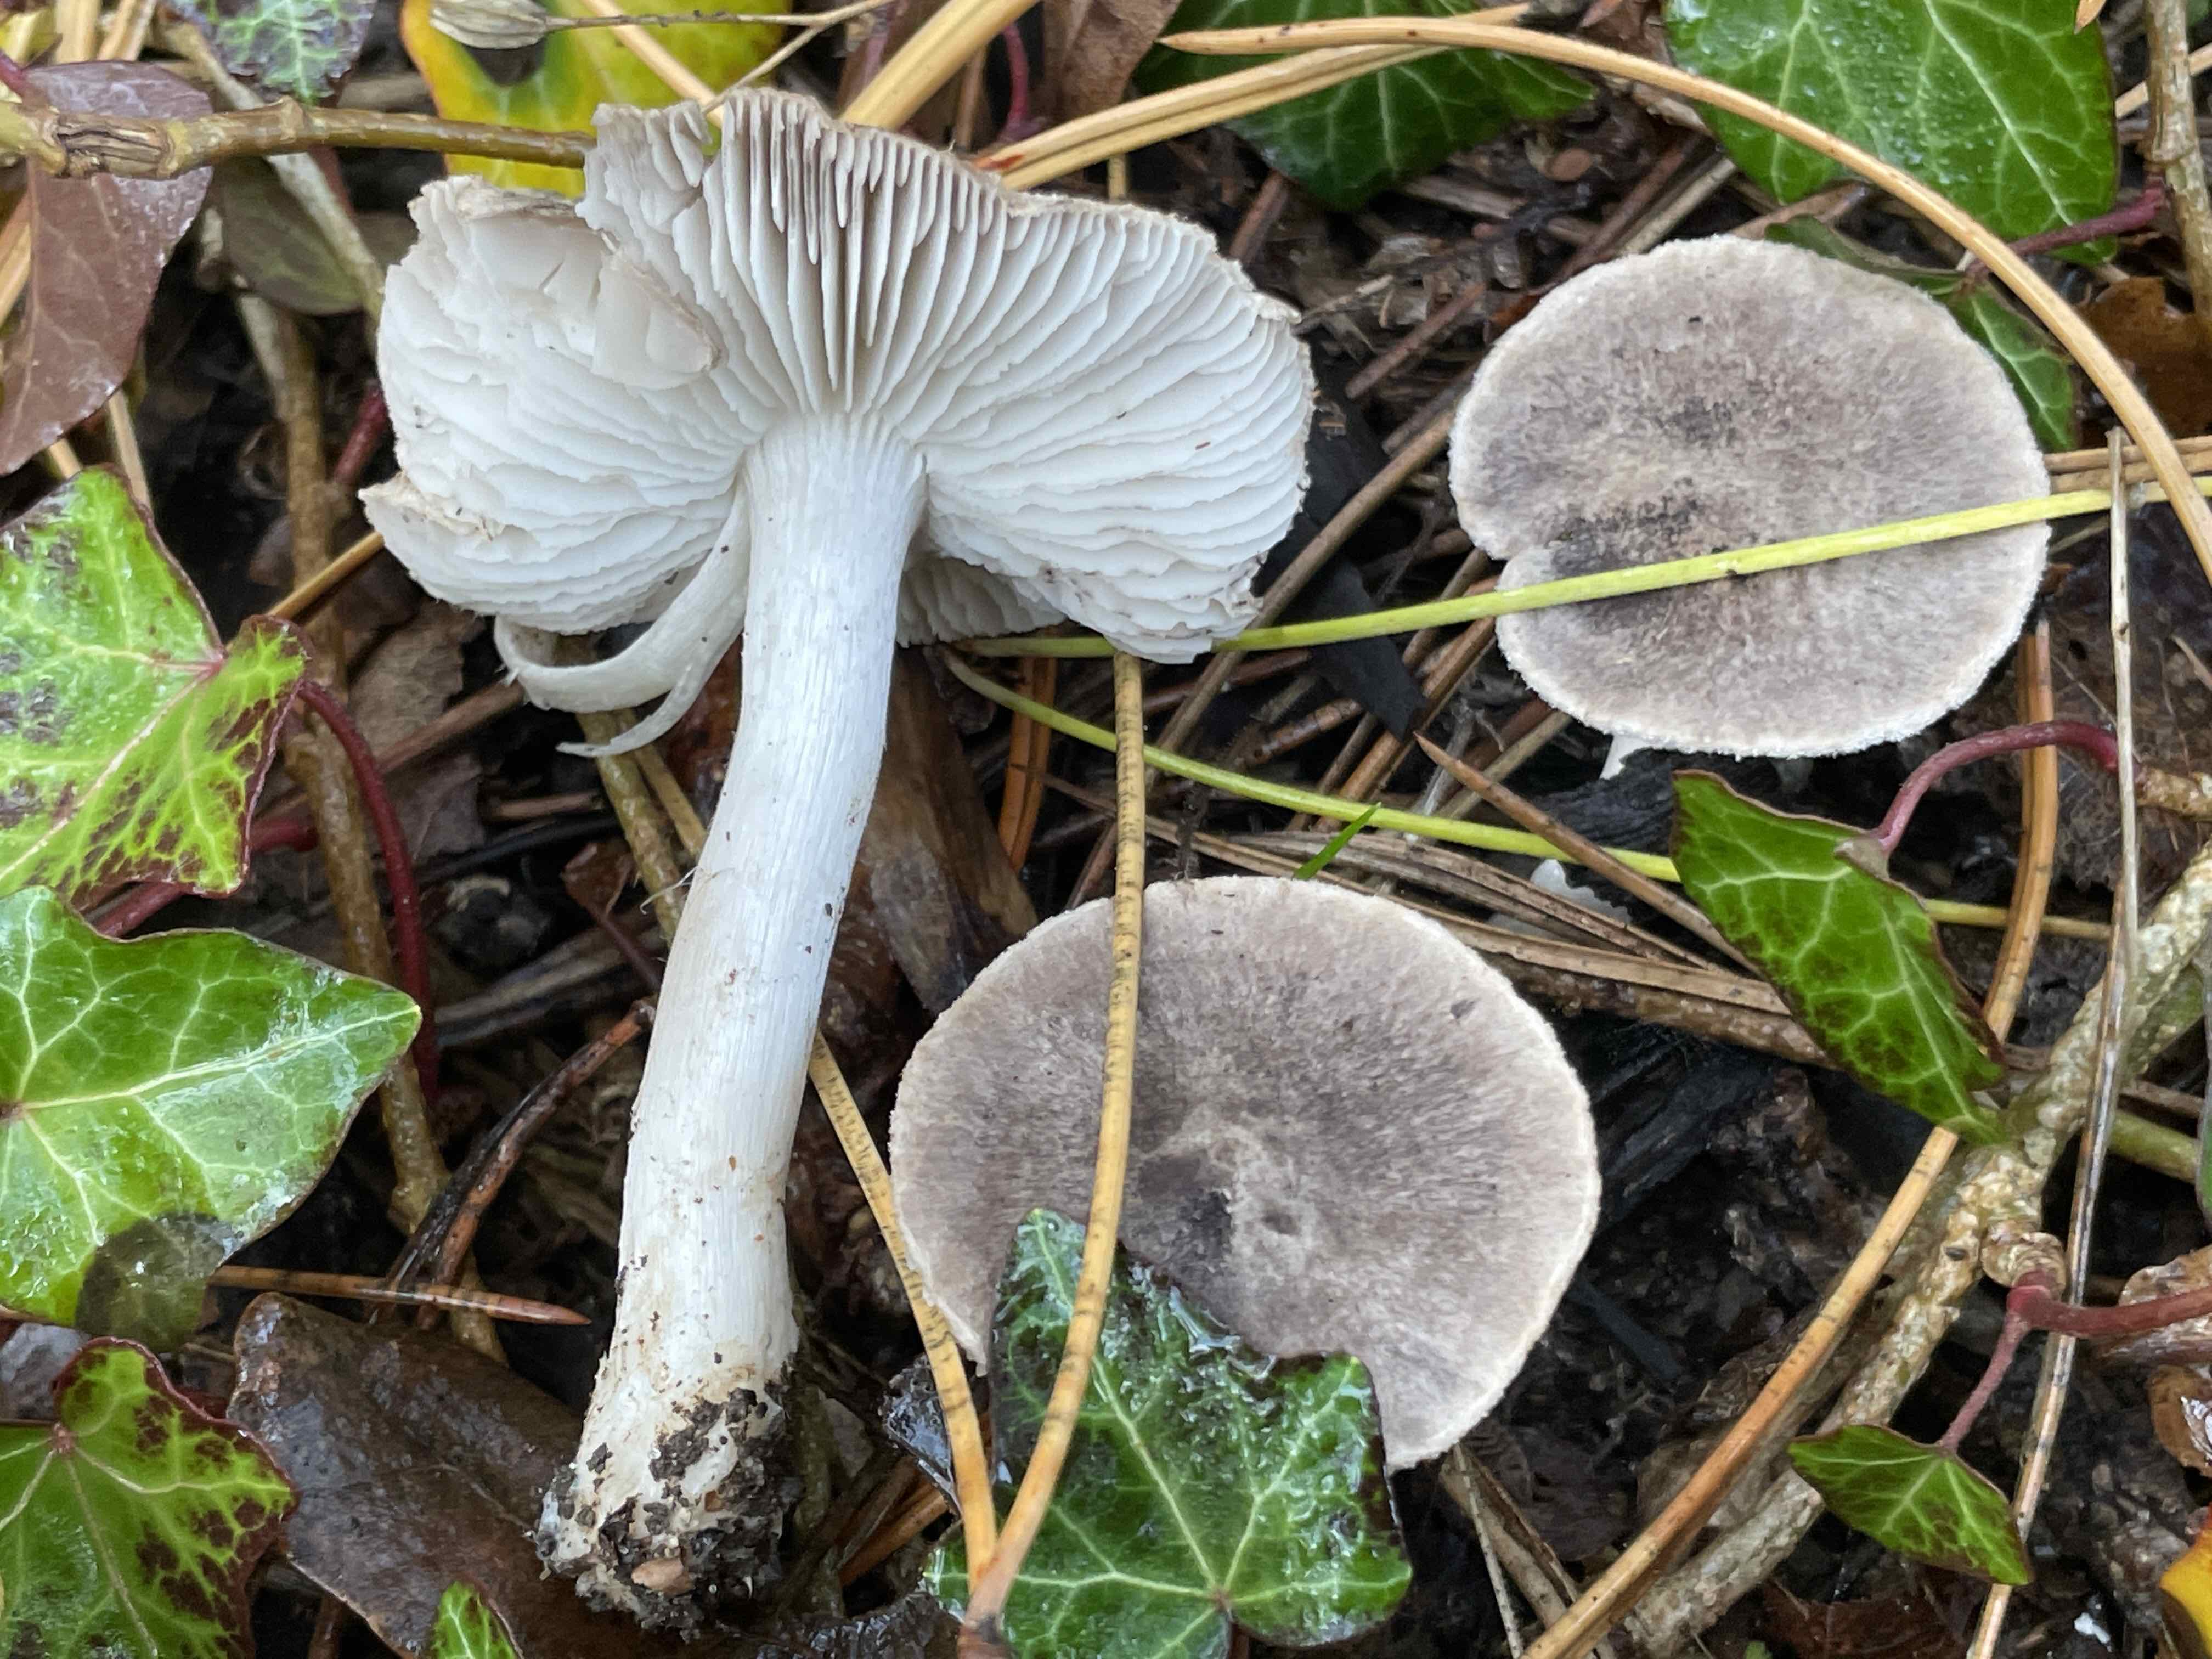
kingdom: Fungi
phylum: Basidiomycota
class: Agaricomycetes
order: Agaricales
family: Tricholomataceae
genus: Tricholoma
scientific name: Tricholoma terreum
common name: jordfarvet ridderhat
